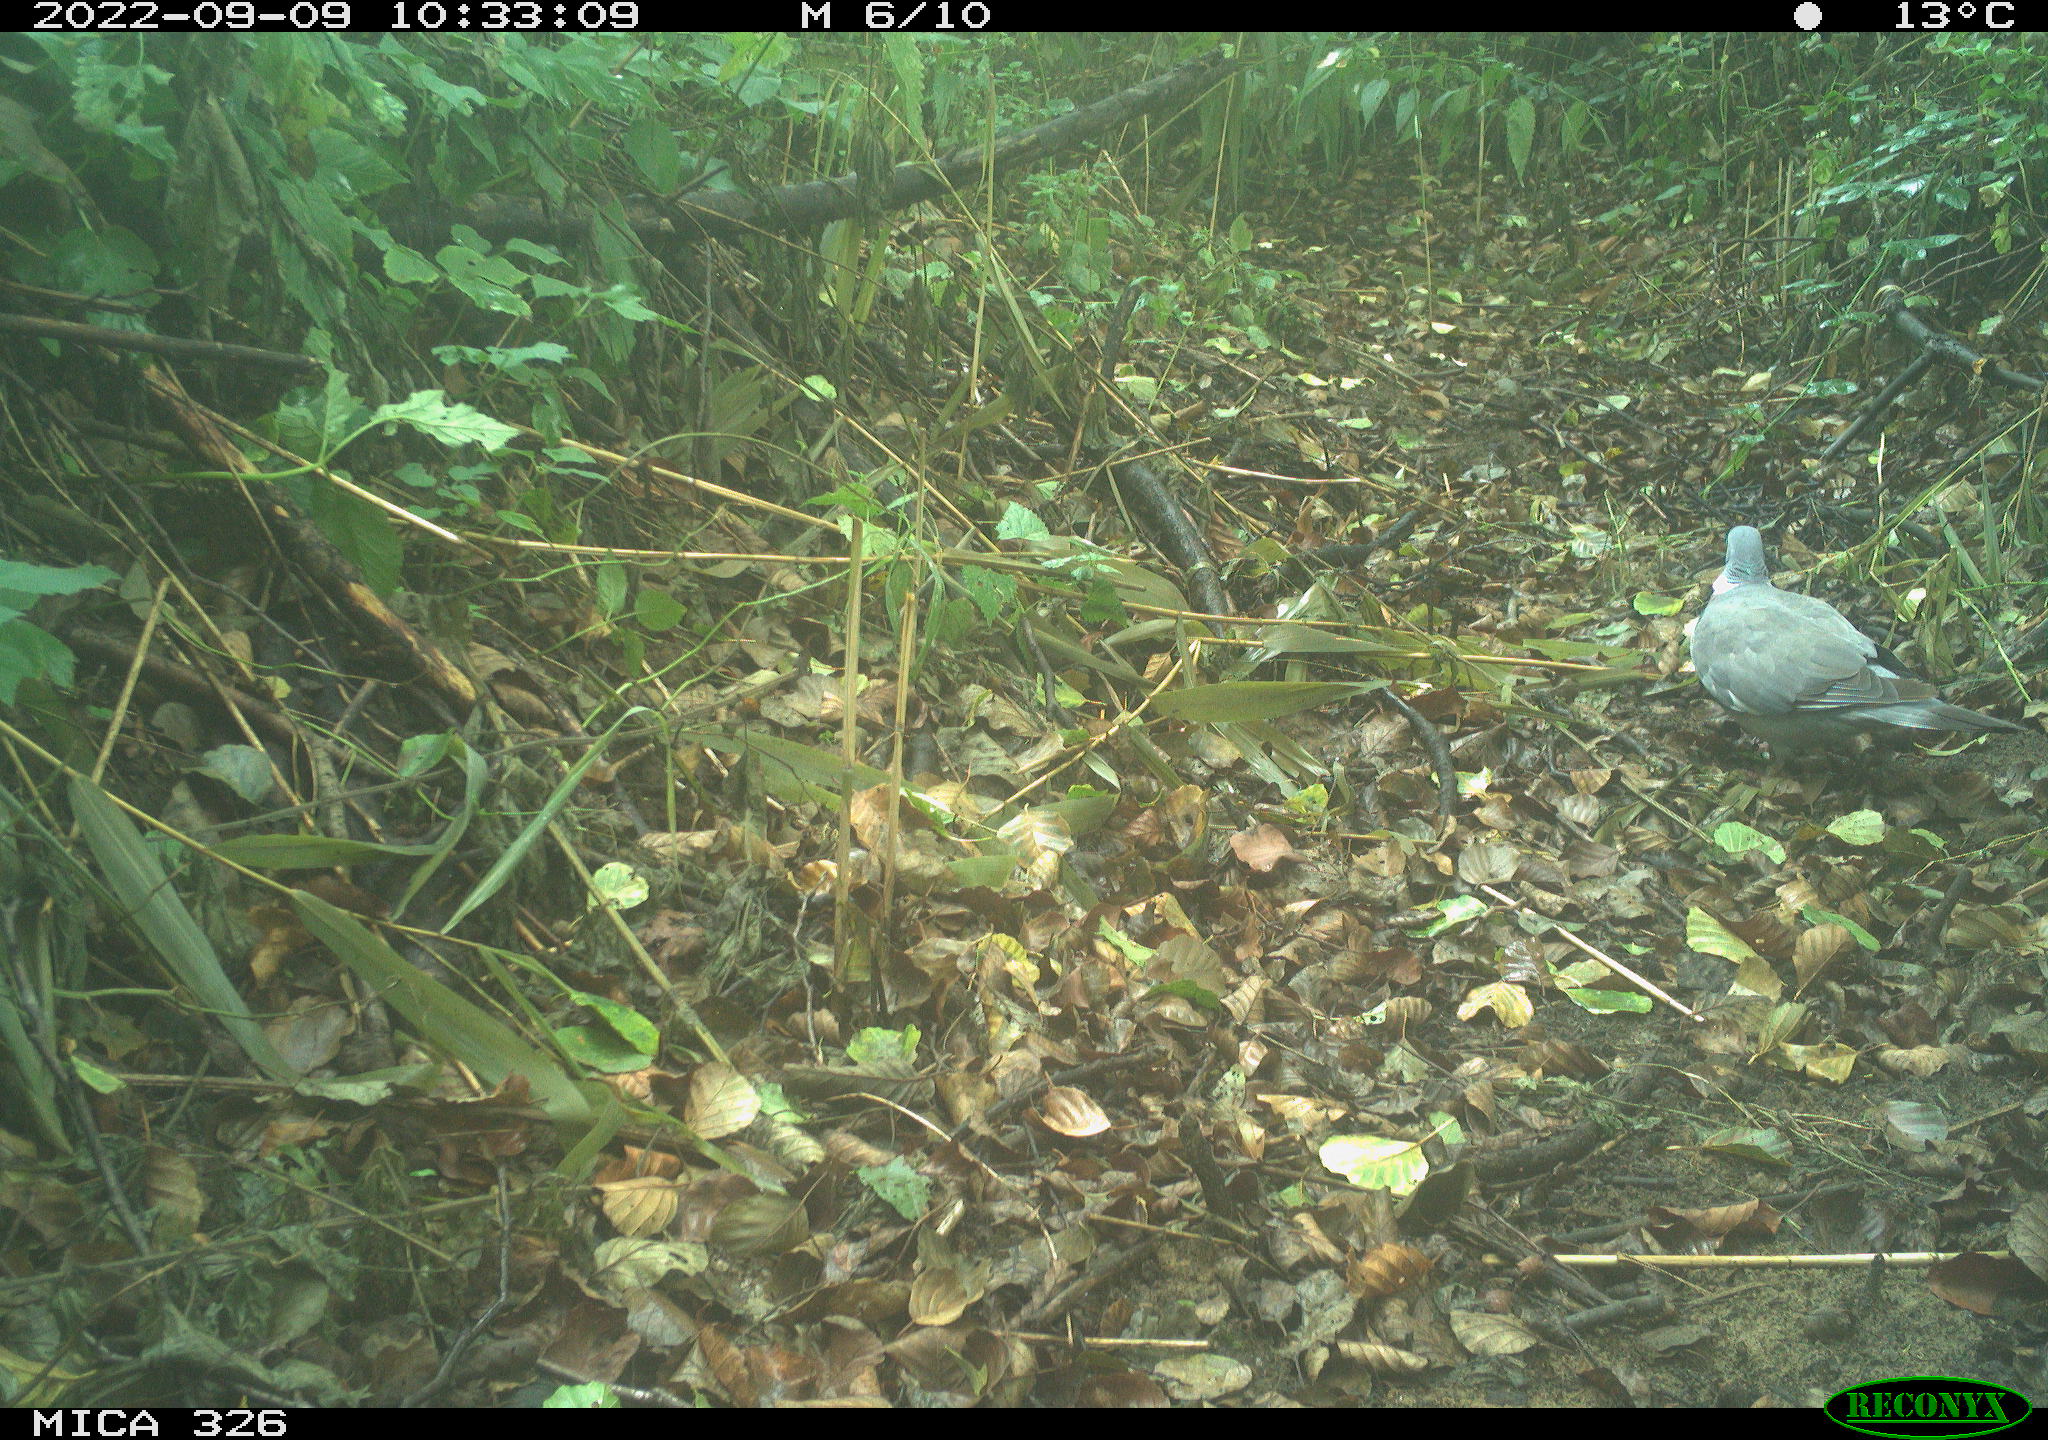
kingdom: Animalia
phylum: Chordata
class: Aves
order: Columbiformes
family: Columbidae
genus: Columba
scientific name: Columba palumbus
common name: Common wood pigeon
